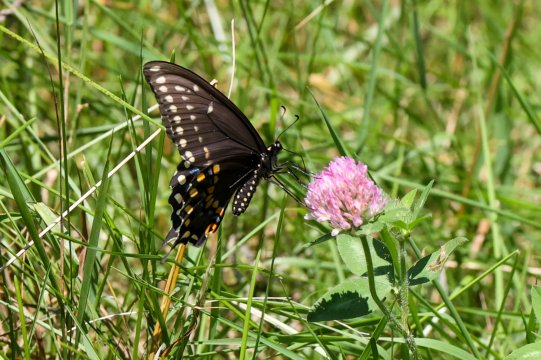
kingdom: Animalia
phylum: Arthropoda
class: Insecta
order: Lepidoptera
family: Papilionidae
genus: Papilio
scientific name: Papilio polyxenes
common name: Black Swallowtail
